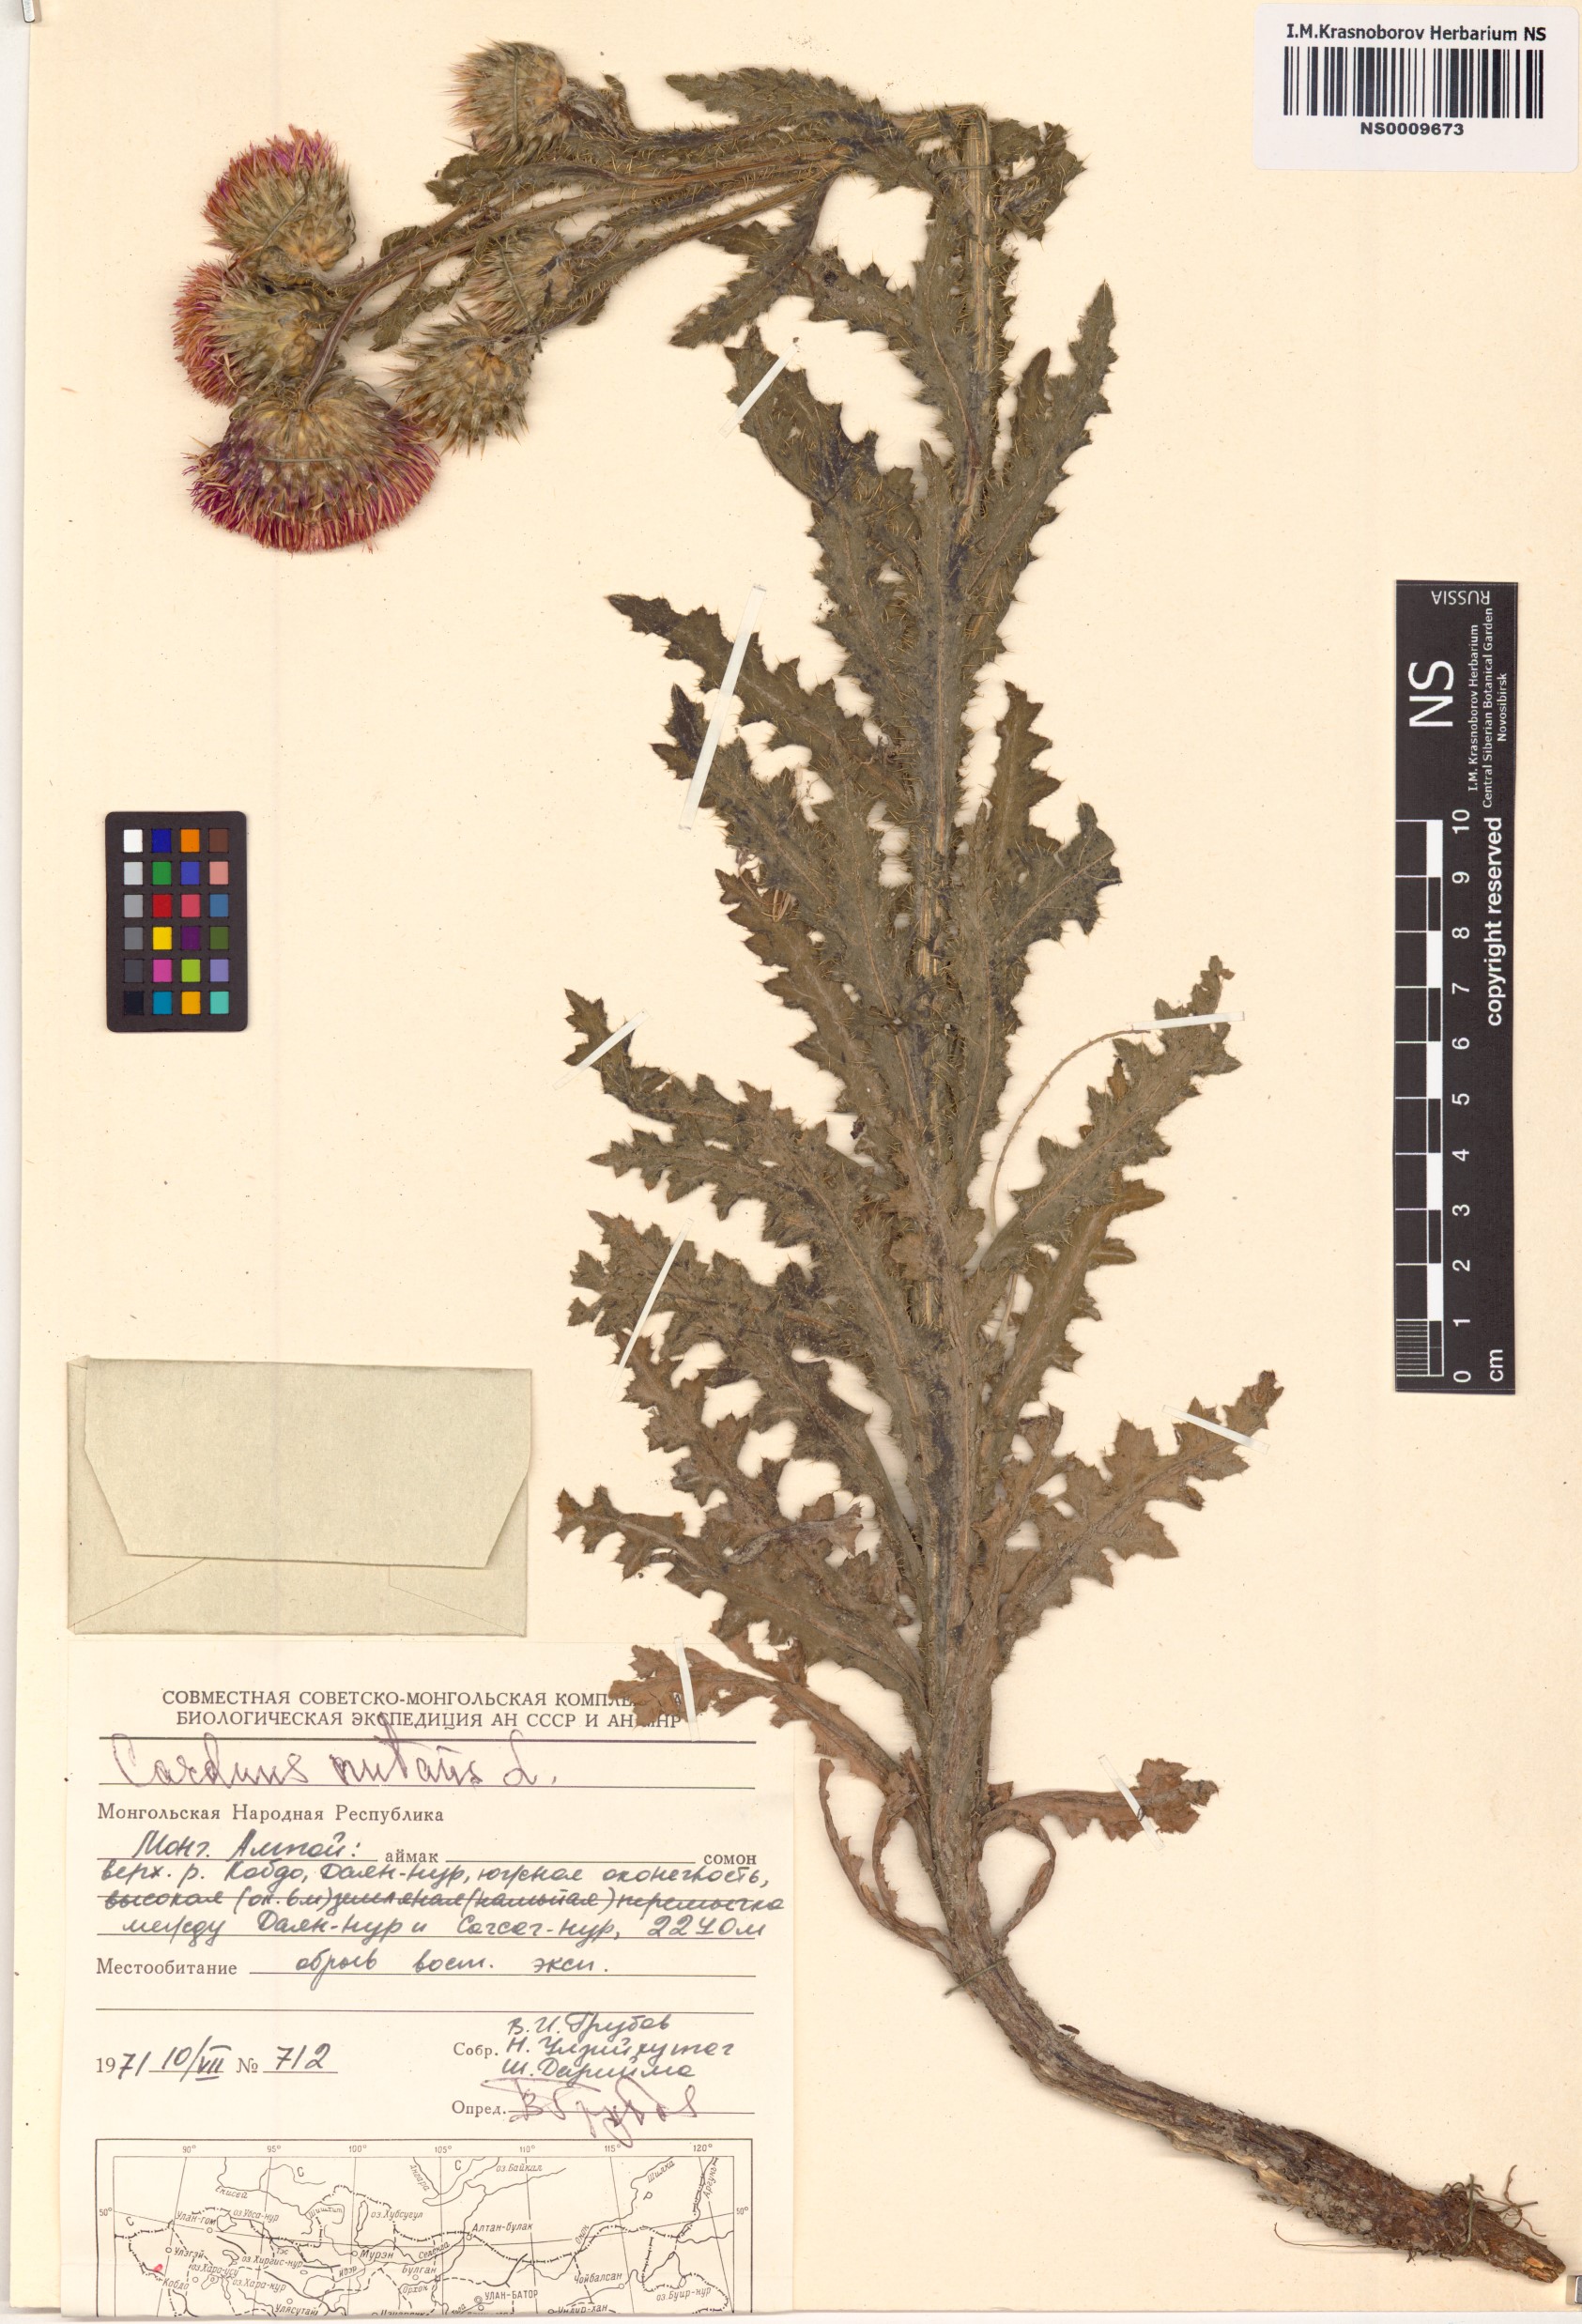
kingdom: Plantae
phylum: Tracheophyta
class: Magnoliopsida
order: Asterales
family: Asteraceae
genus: Carduus
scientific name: Carduus nutans
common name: Musk thistle
